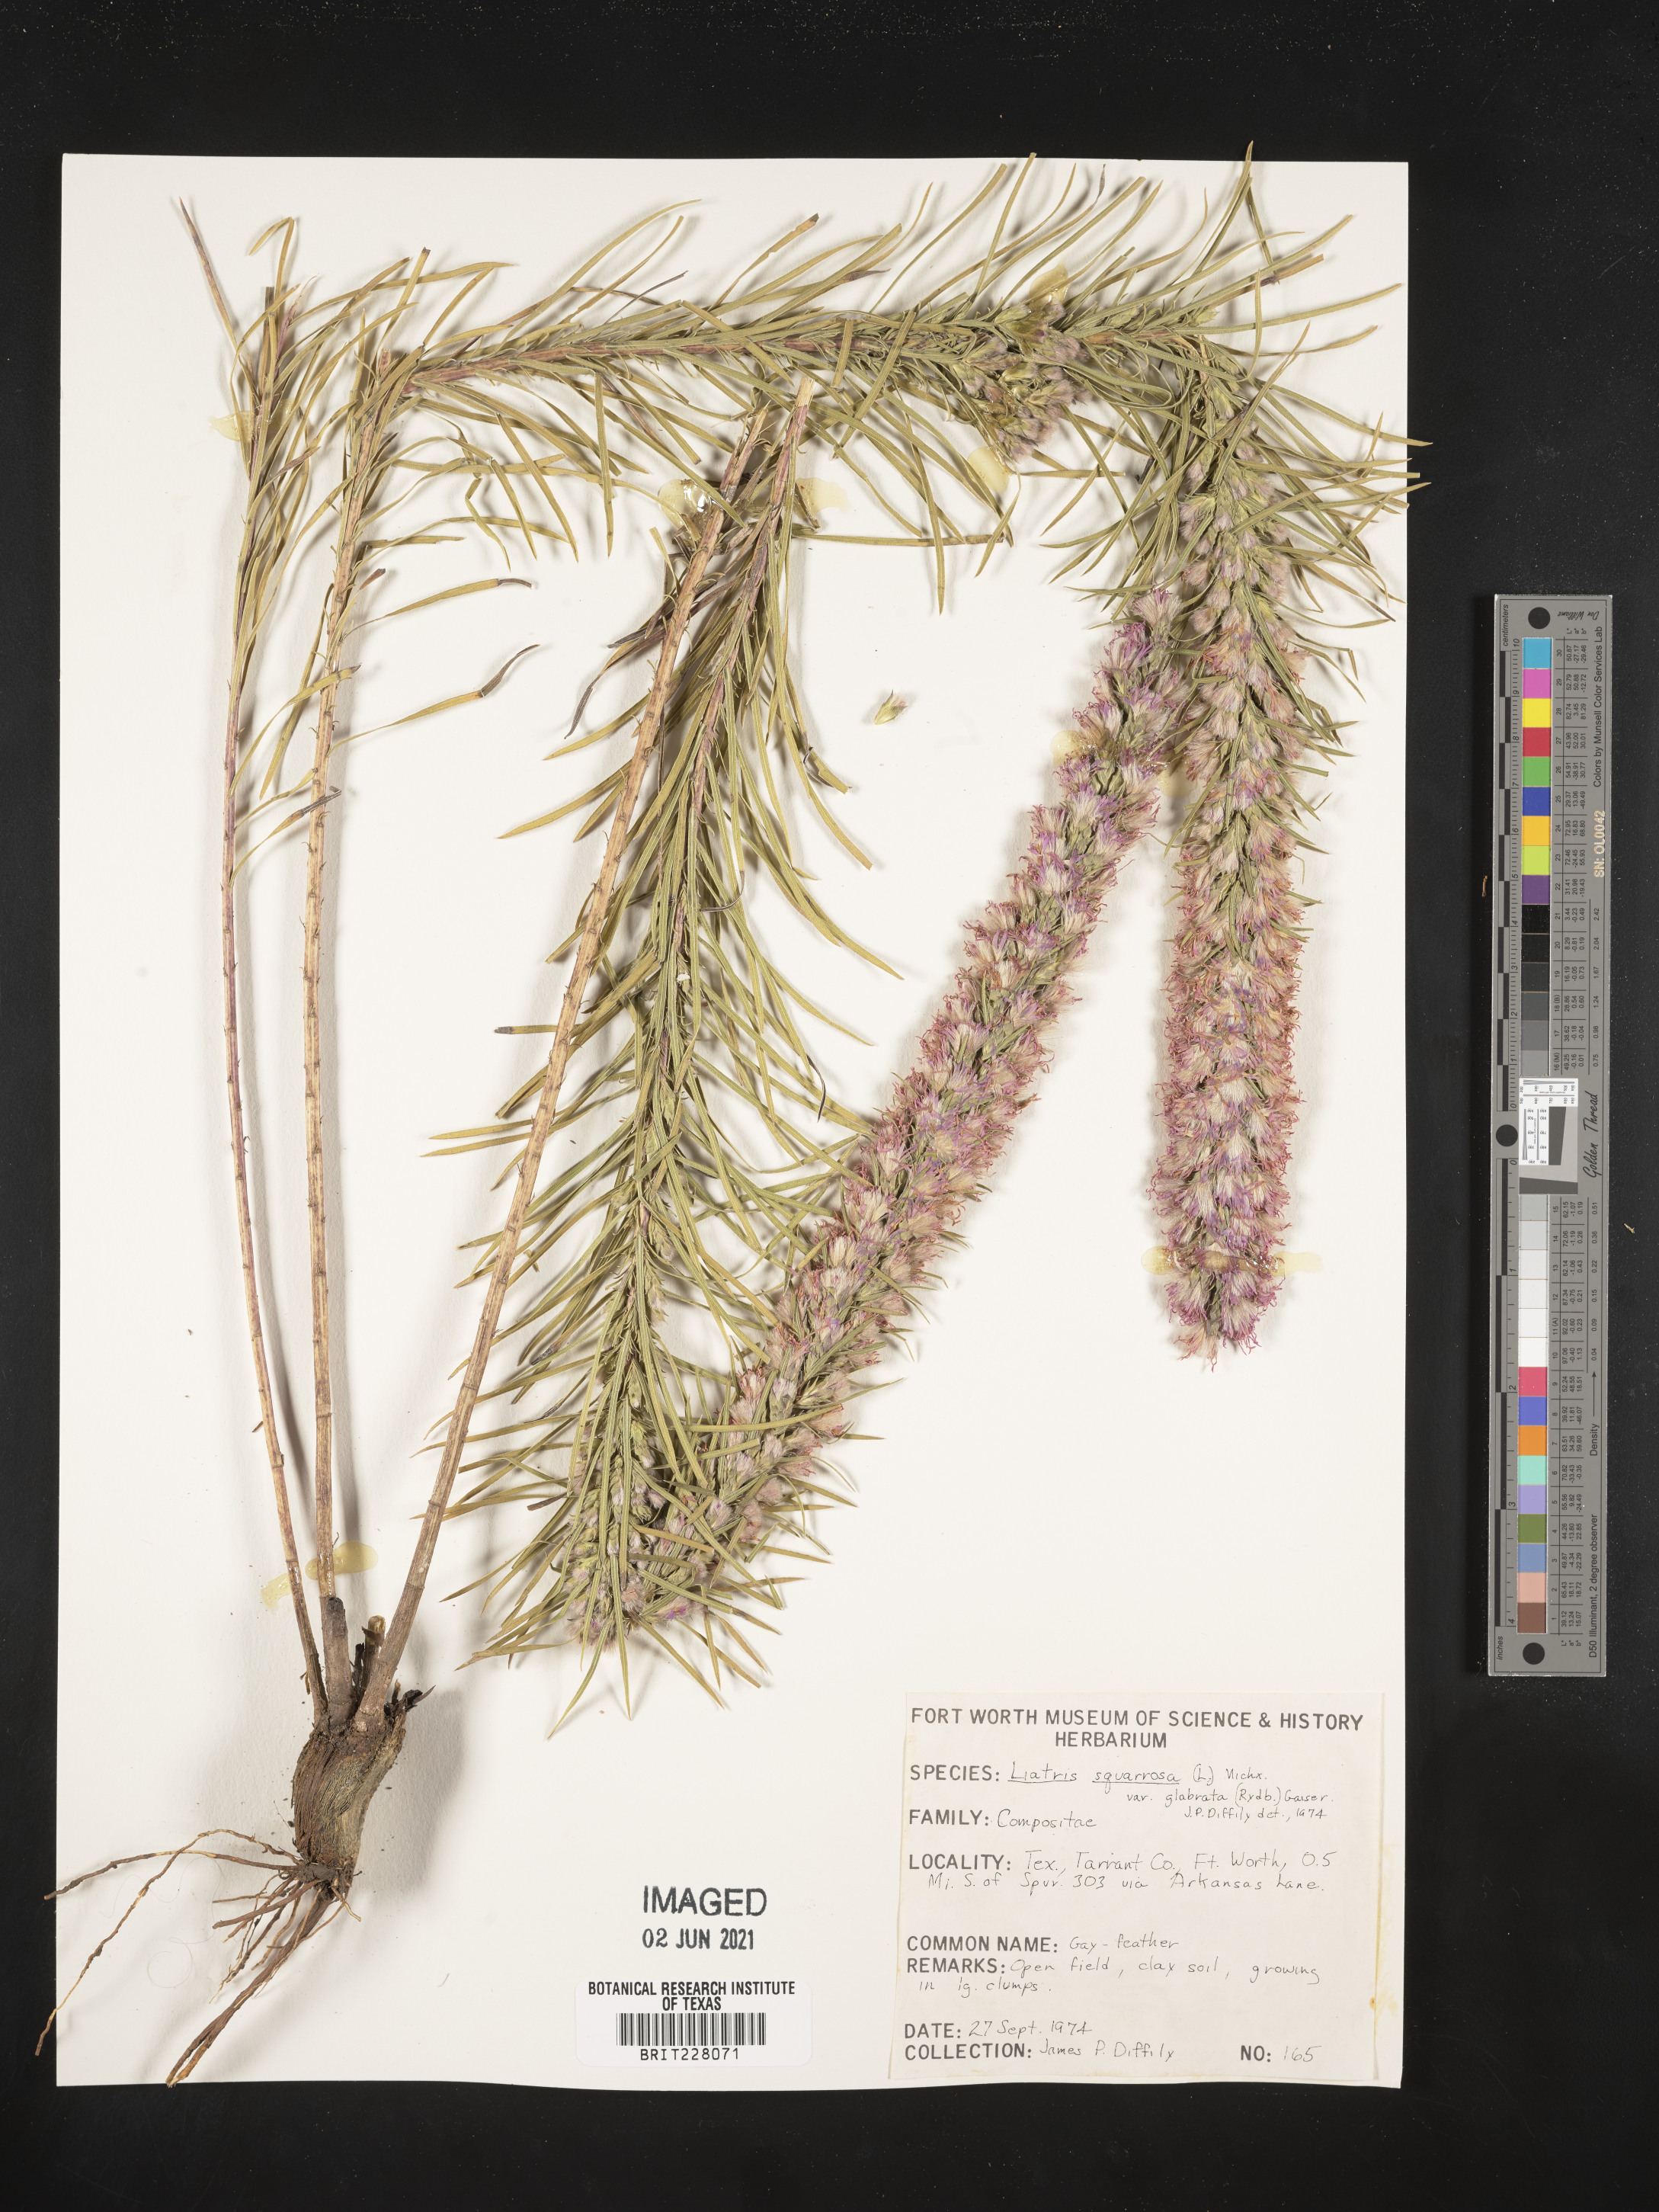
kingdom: Plantae
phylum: Tracheophyta
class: Magnoliopsida
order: Asterales
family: Asteraceae
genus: Liatris
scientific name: Liatris spicata
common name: Florist gayfeather
